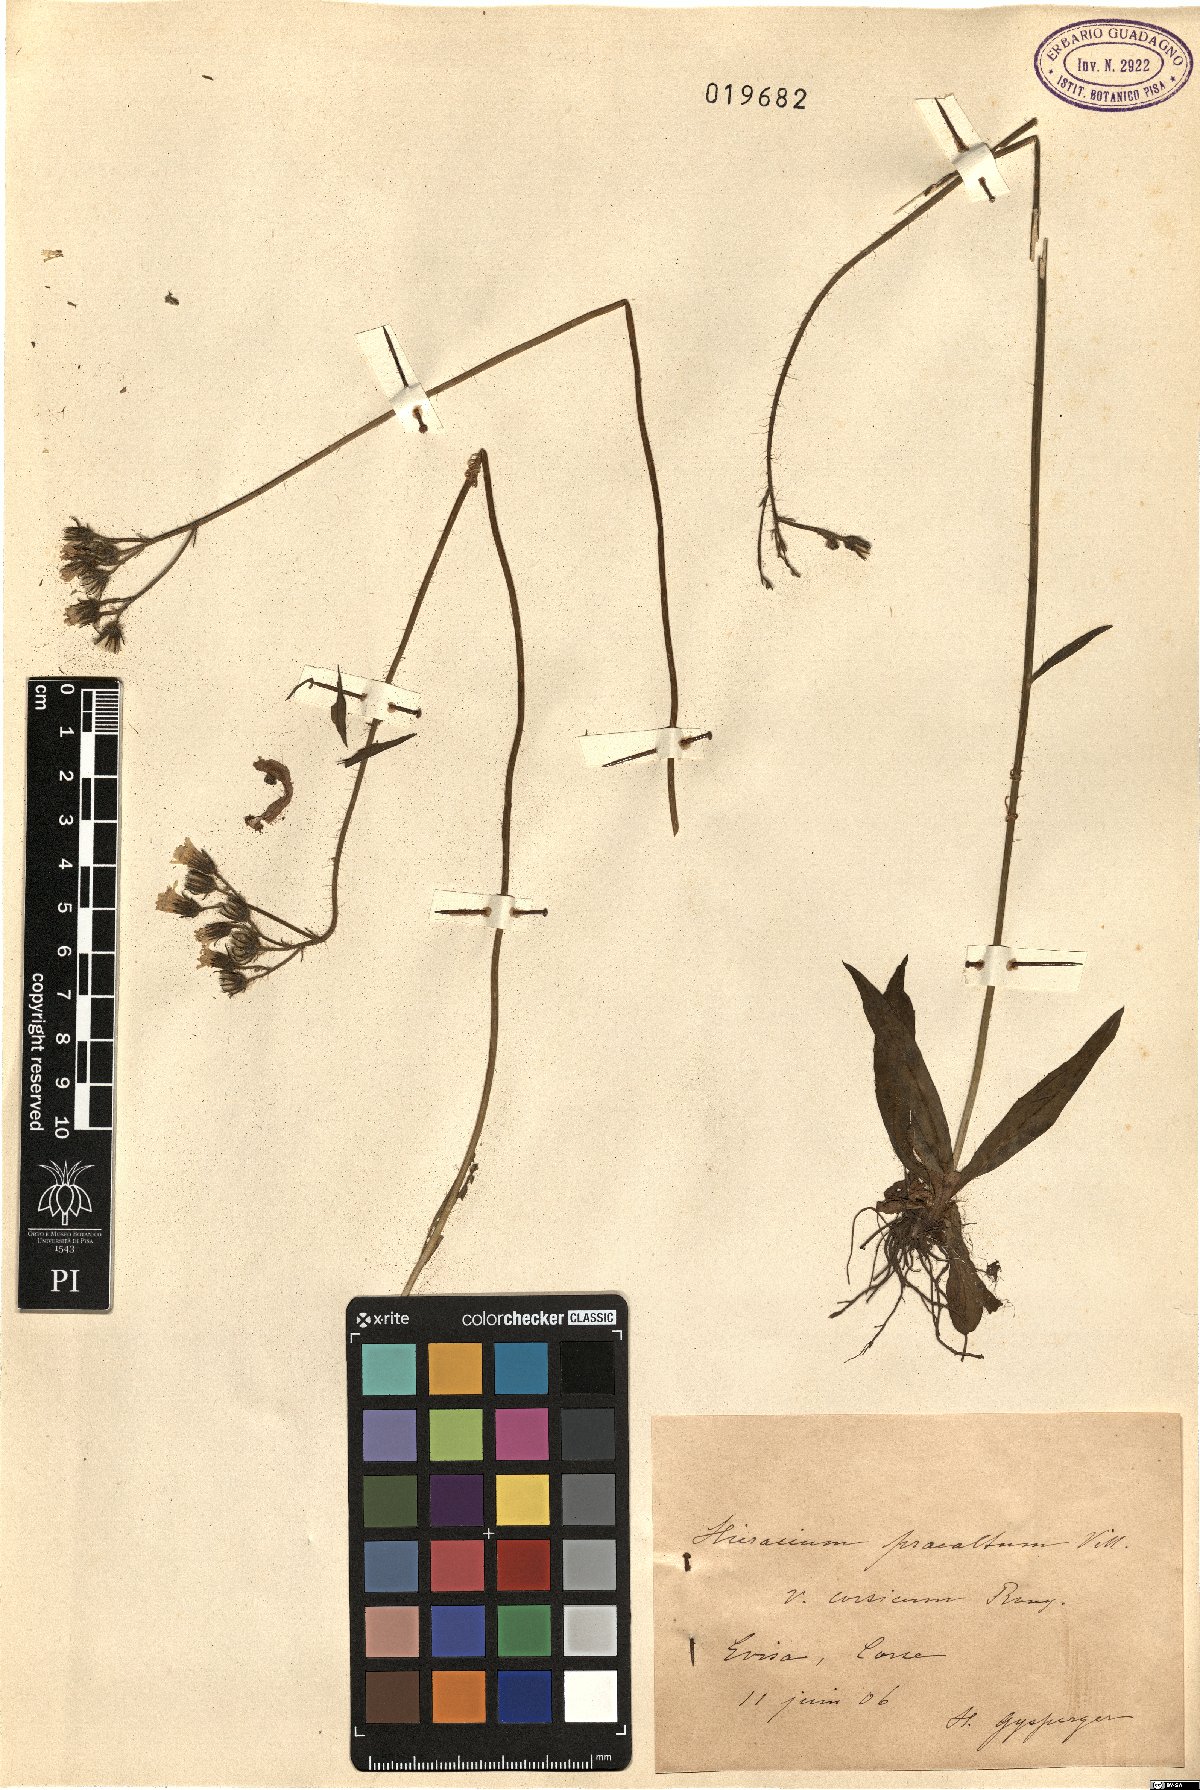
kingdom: Plantae
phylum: Tracheophyta
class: Magnoliopsida
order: Asterales
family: Asteraceae
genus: Pilosella
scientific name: Pilosella piloselloides
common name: Glaucous king-devil
